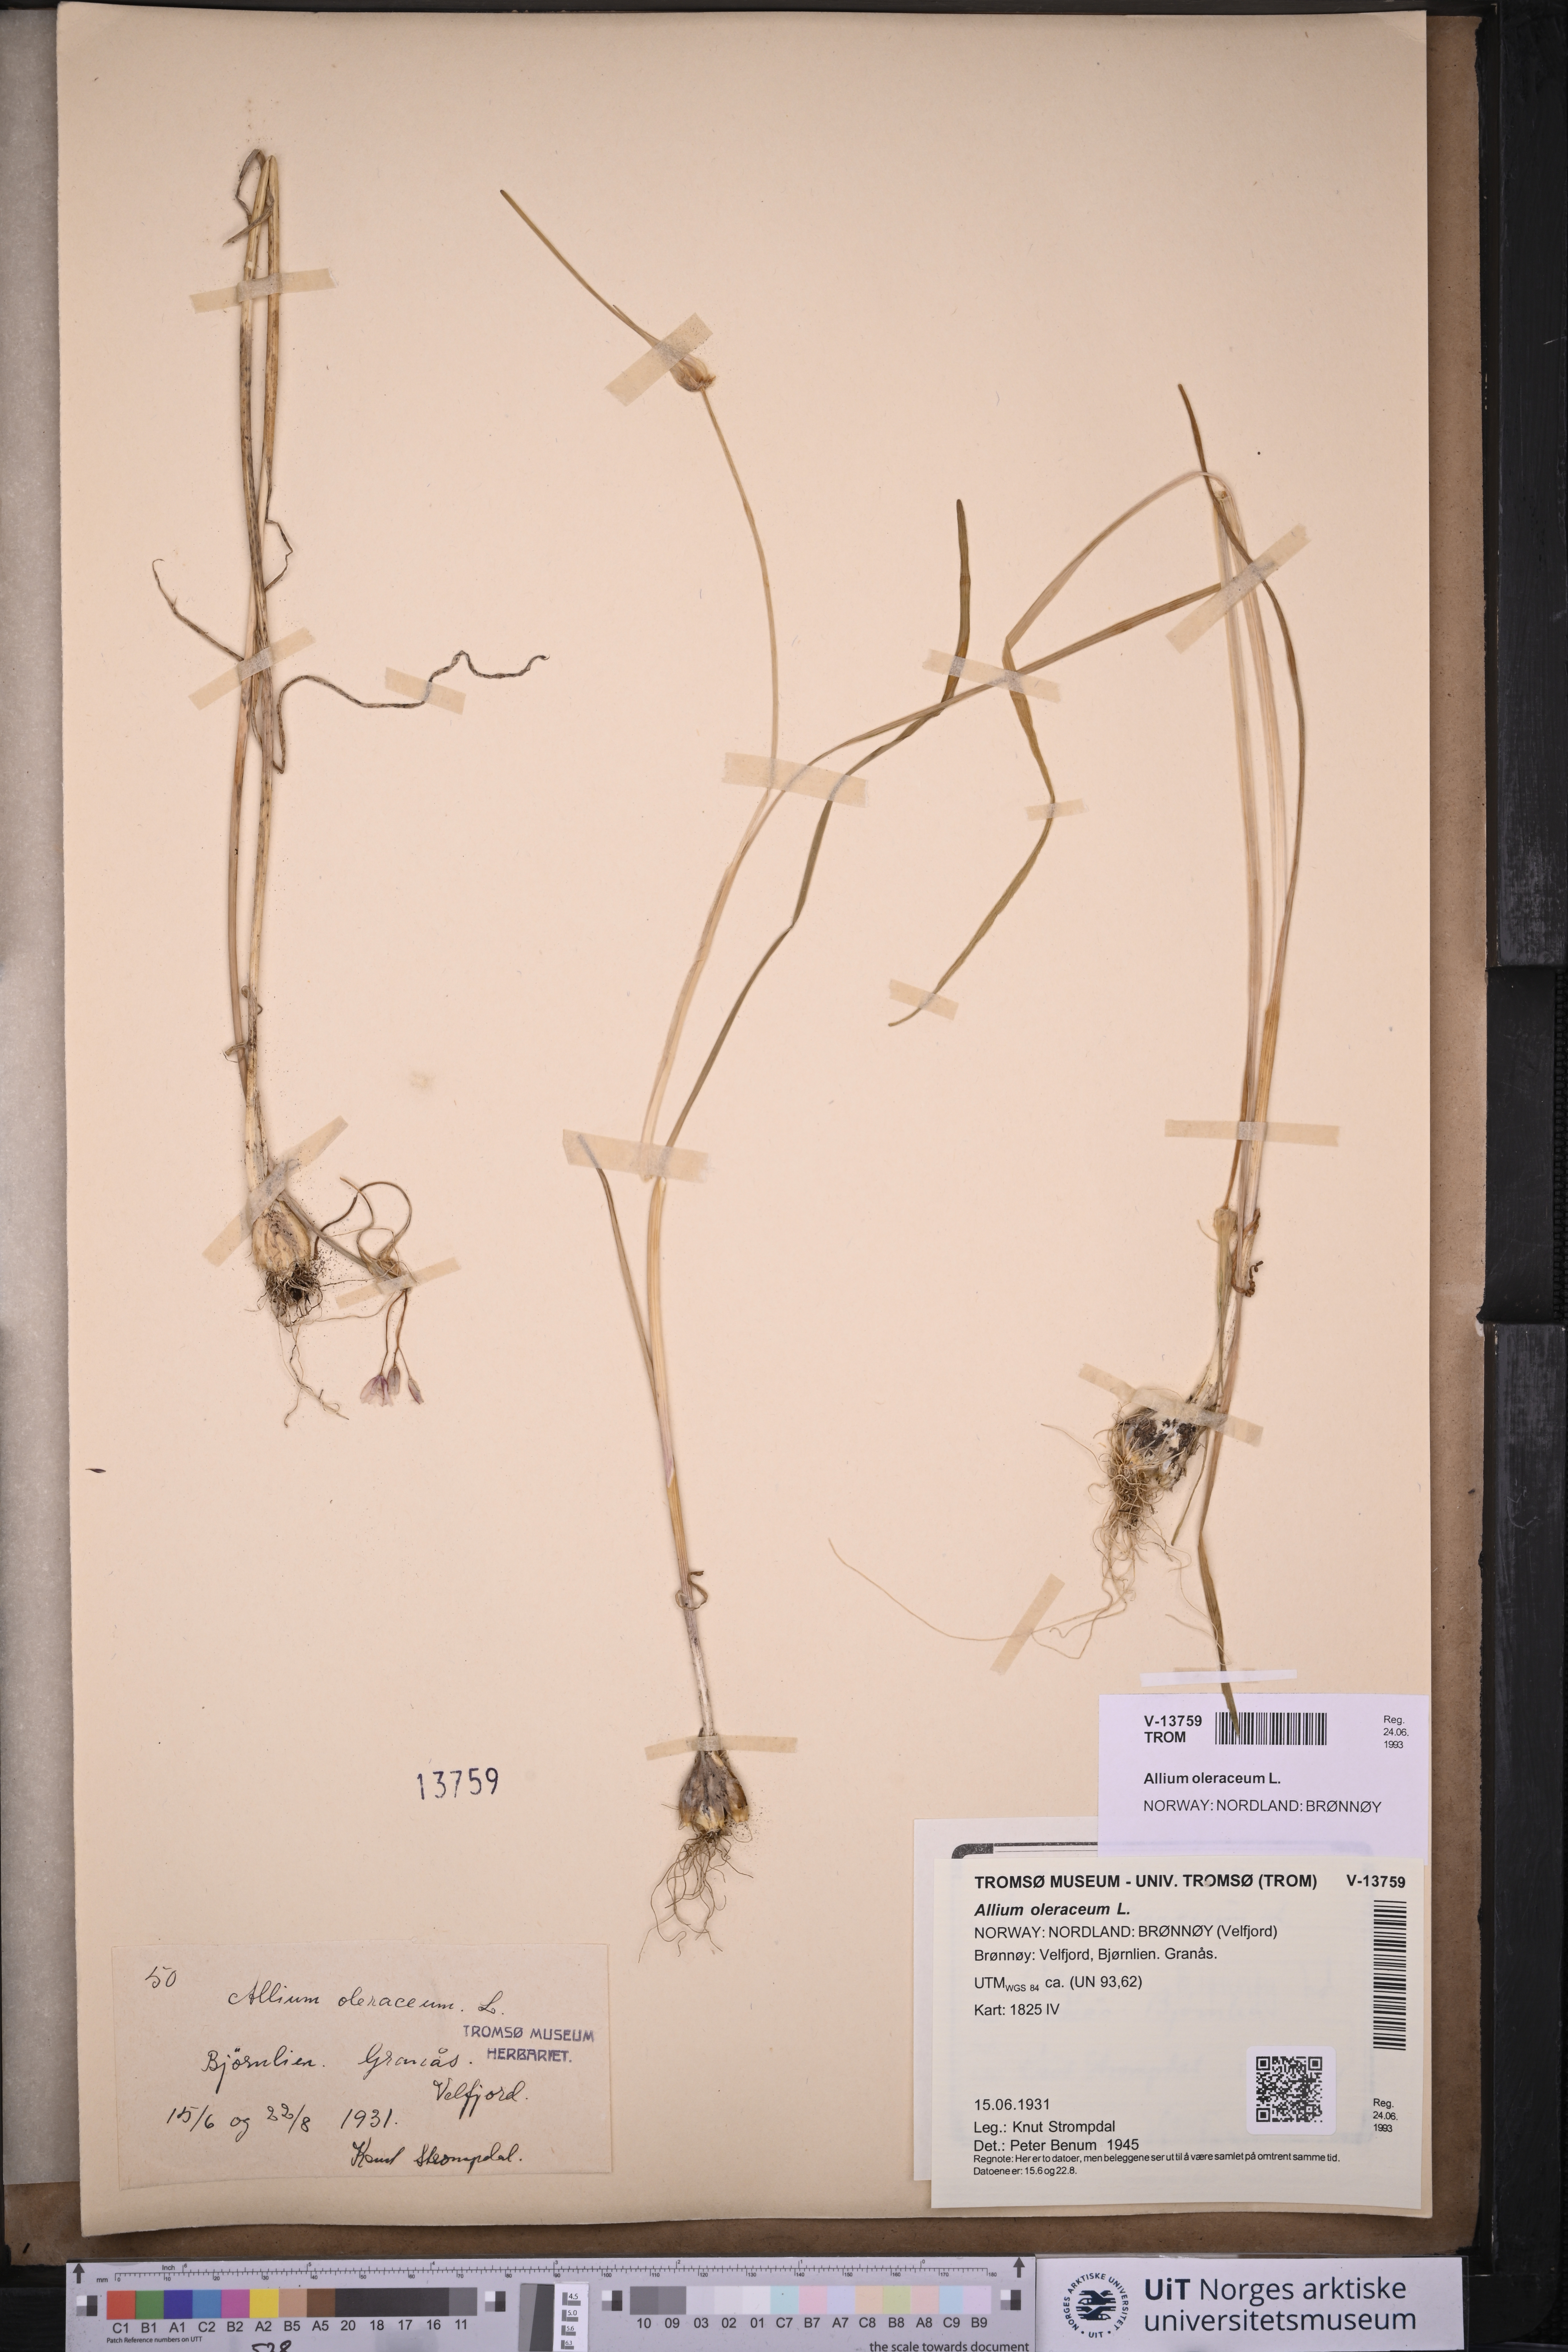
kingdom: Plantae
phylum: Tracheophyta
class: Liliopsida
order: Asparagales
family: Amaryllidaceae
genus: Allium
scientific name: Allium oleraceum
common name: Field garlic
